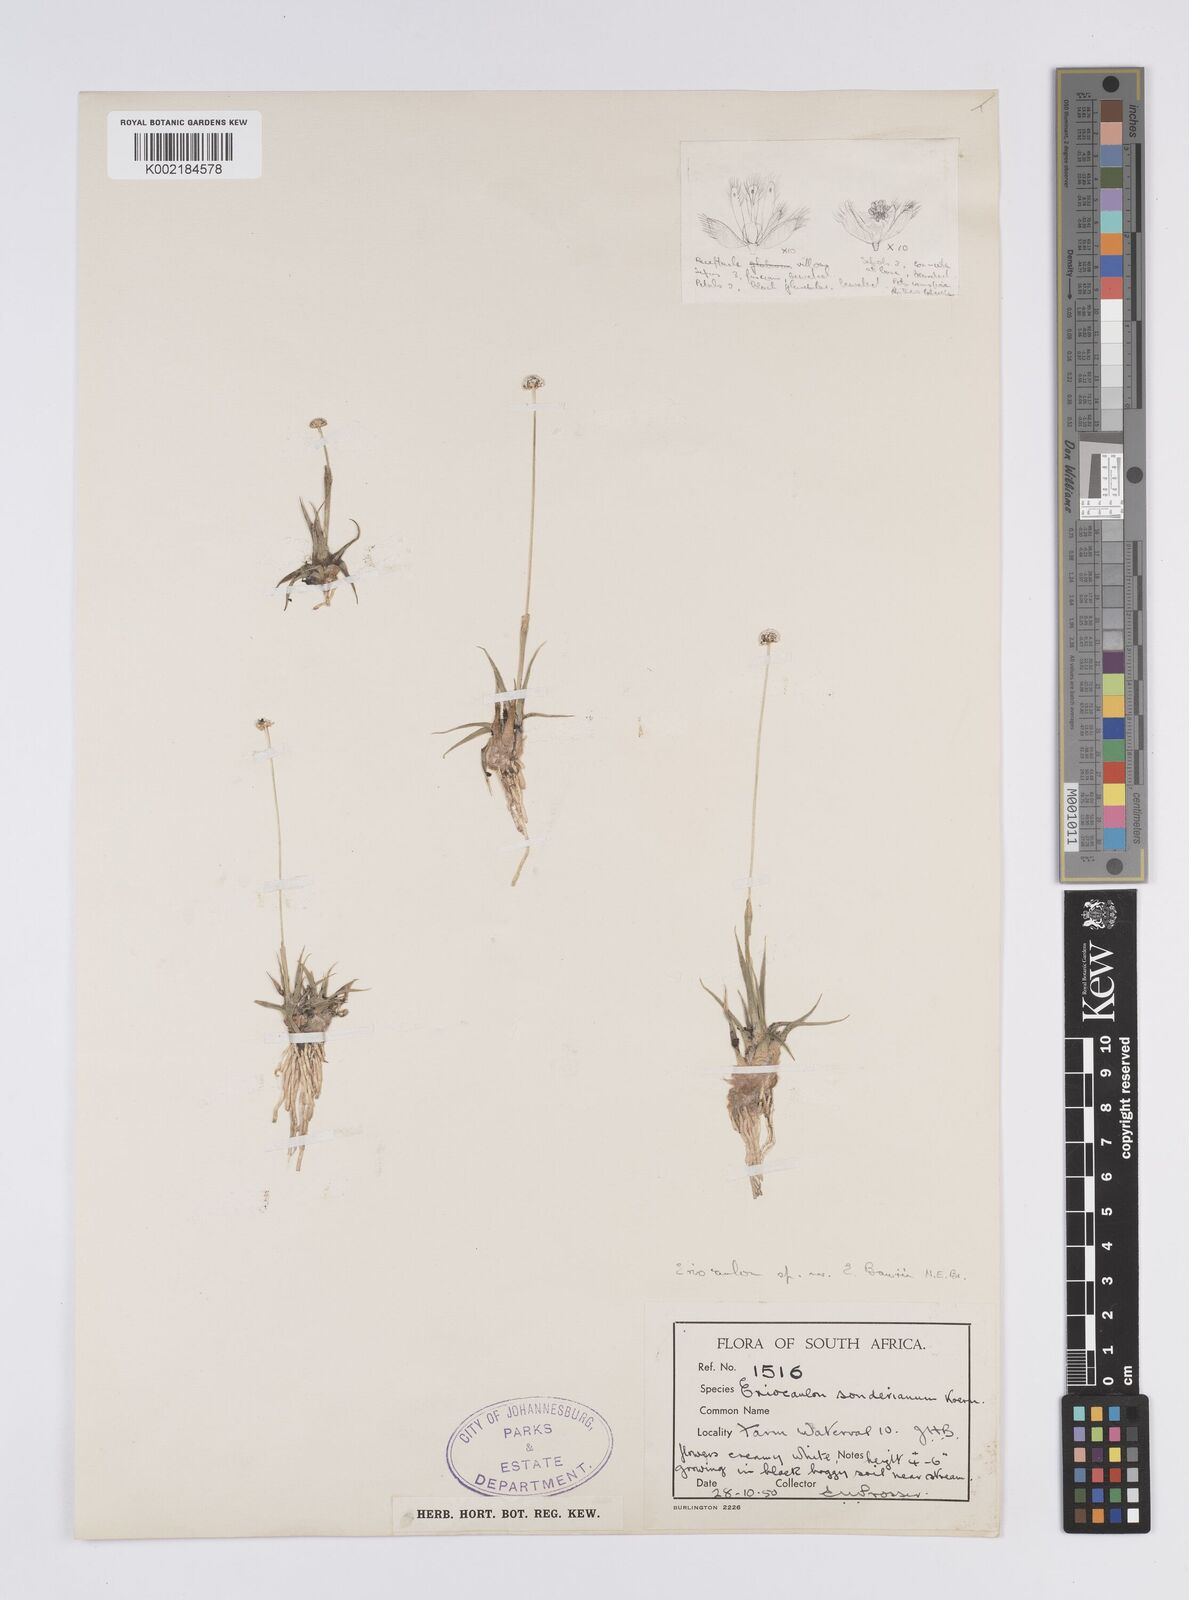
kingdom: Plantae
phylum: Tracheophyta
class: Liliopsida
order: Poales
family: Eriocaulaceae
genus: Eriocaulon
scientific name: Eriocaulon sonderianum
